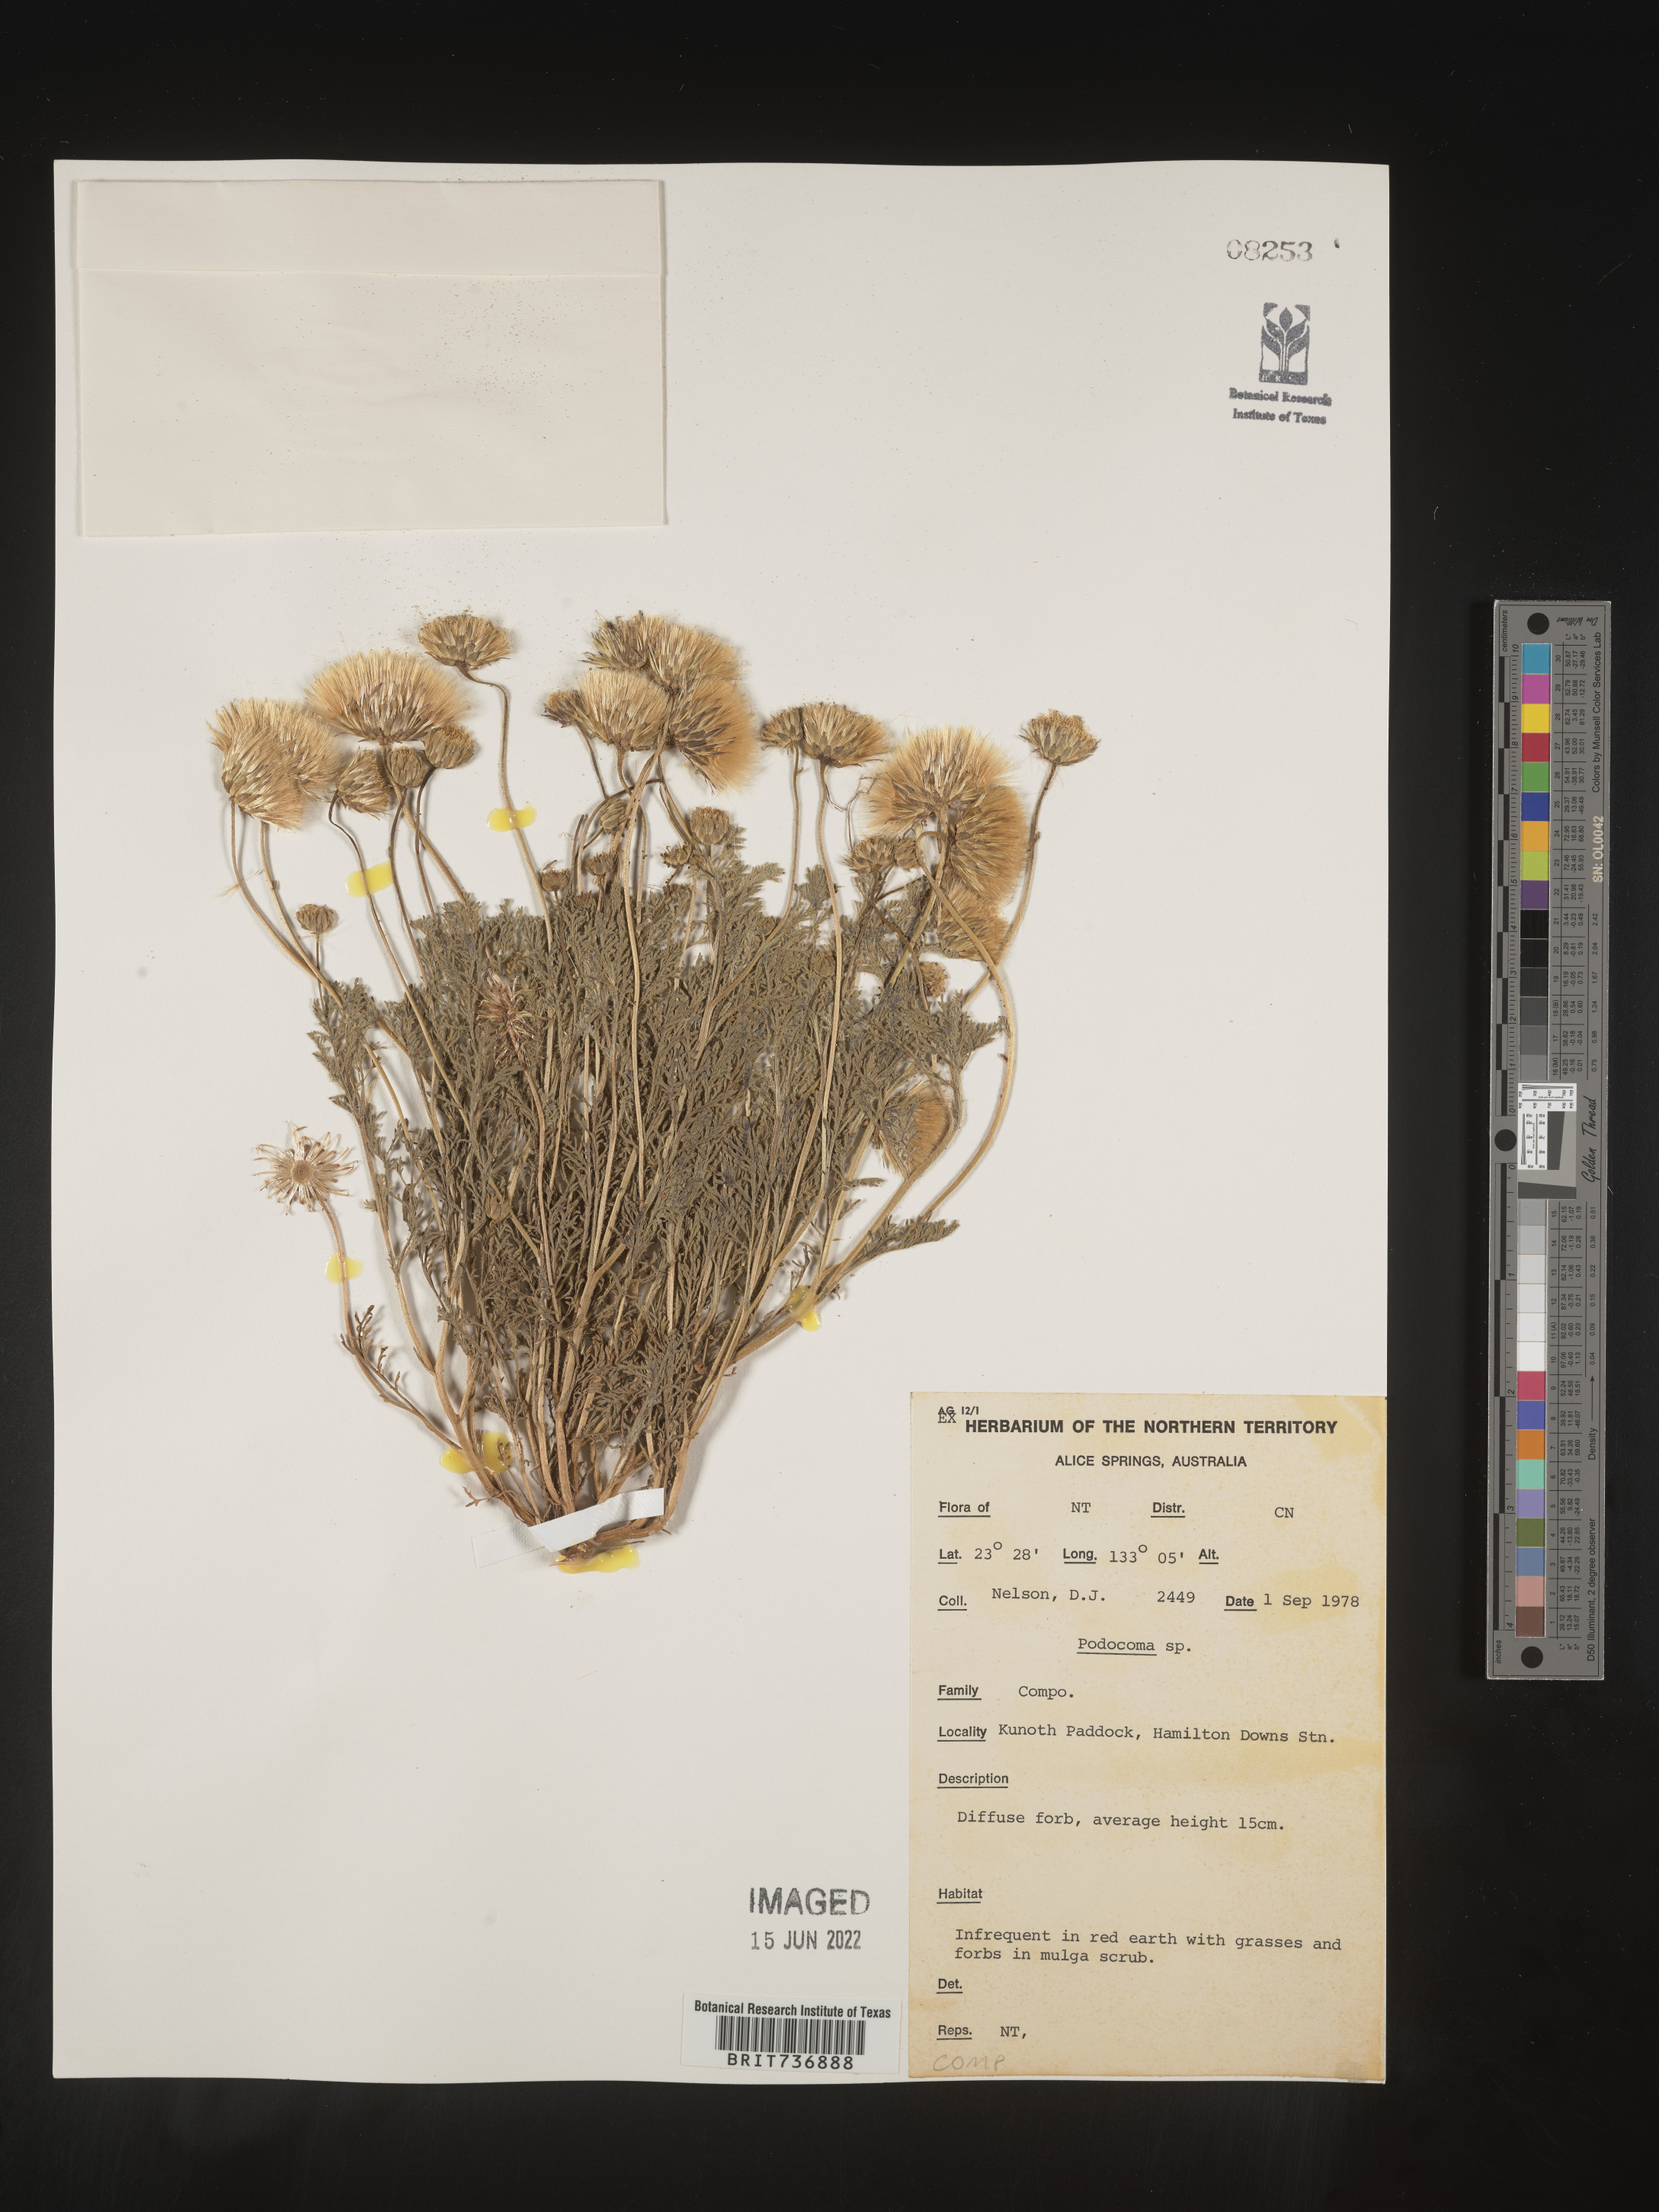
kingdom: Plantae
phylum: Tracheophyta
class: Magnoliopsida
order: Asterales
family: Asteraceae
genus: Podocoma
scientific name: Podocoma
